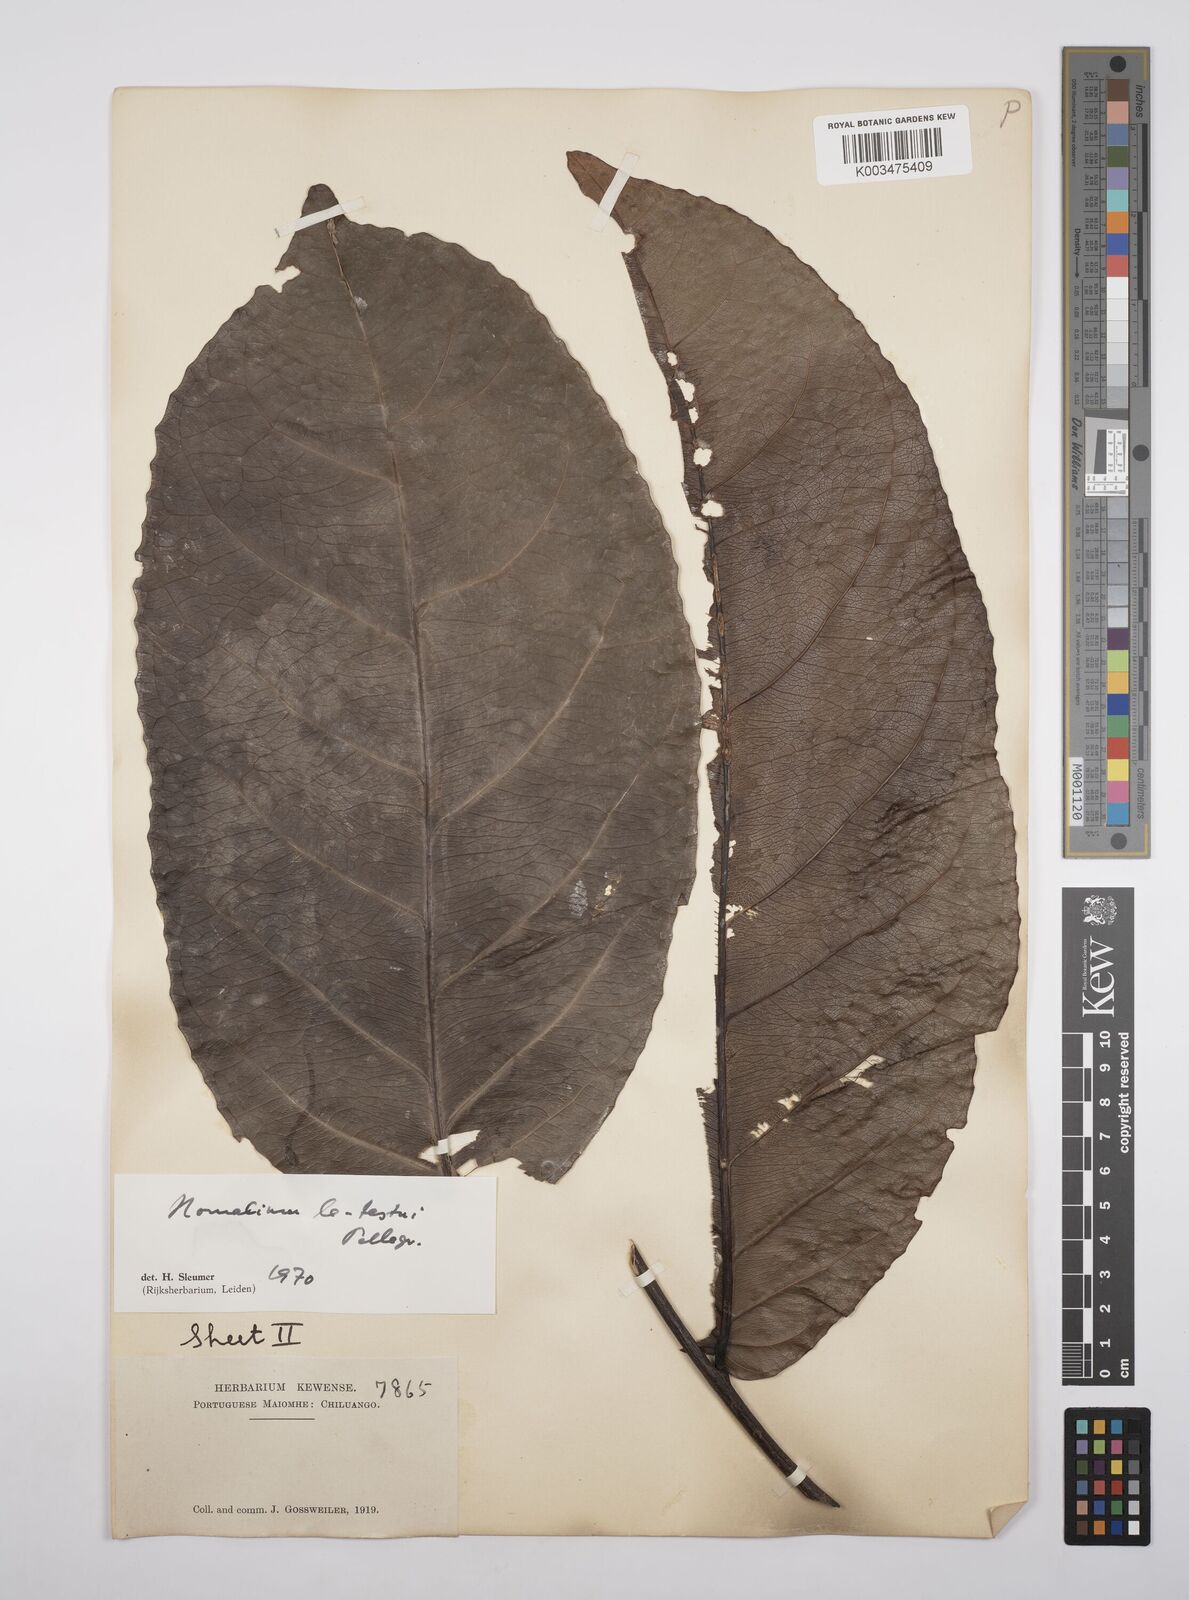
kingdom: Plantae
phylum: Tracheophyta
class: Magnoliopsida
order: Malpighiales
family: Salicaceae
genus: Homalium
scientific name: Homalium letestui
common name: African homalium
